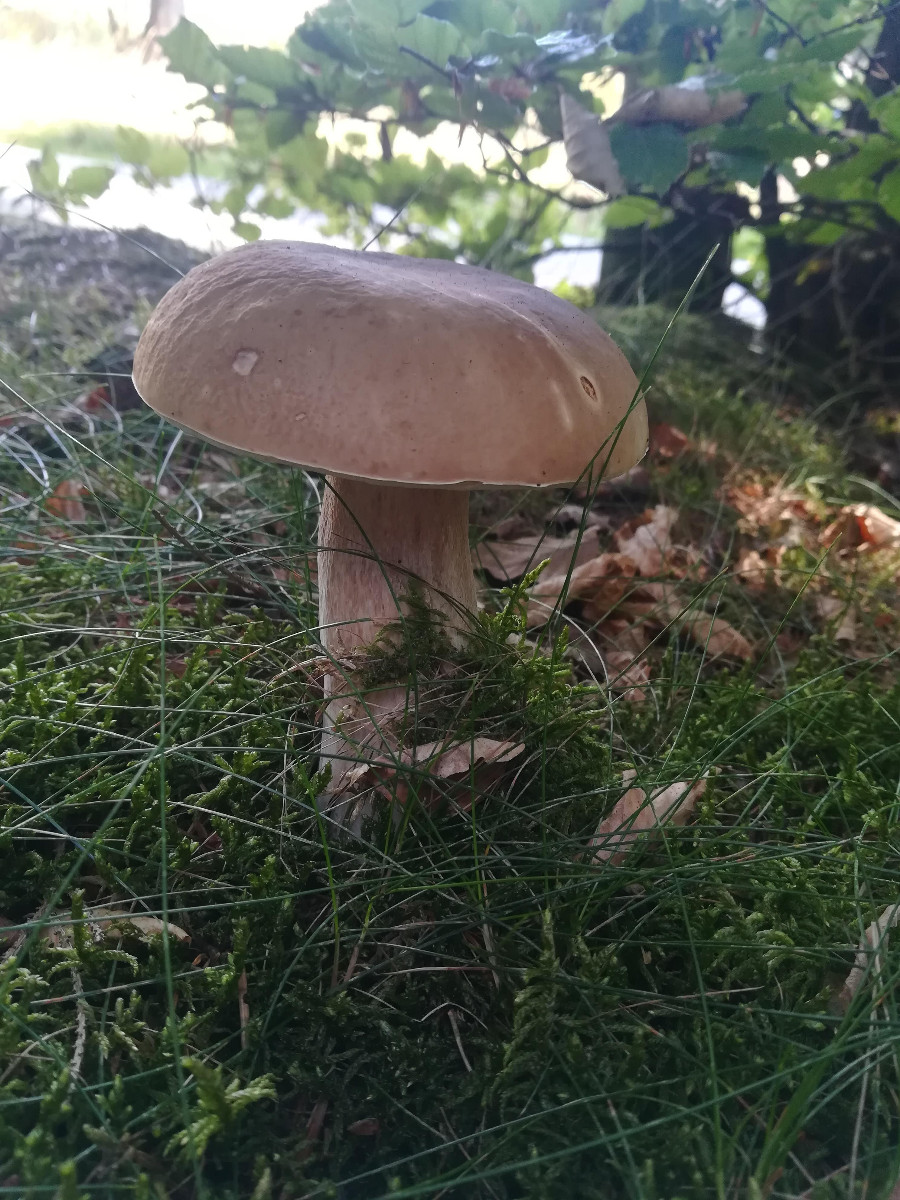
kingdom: Fungi
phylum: Basidiomycota
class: Agaricomycetes
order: Boletales
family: Boletaceae
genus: Boletus
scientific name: Boletus reticulatus
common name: sommer-rørhat
